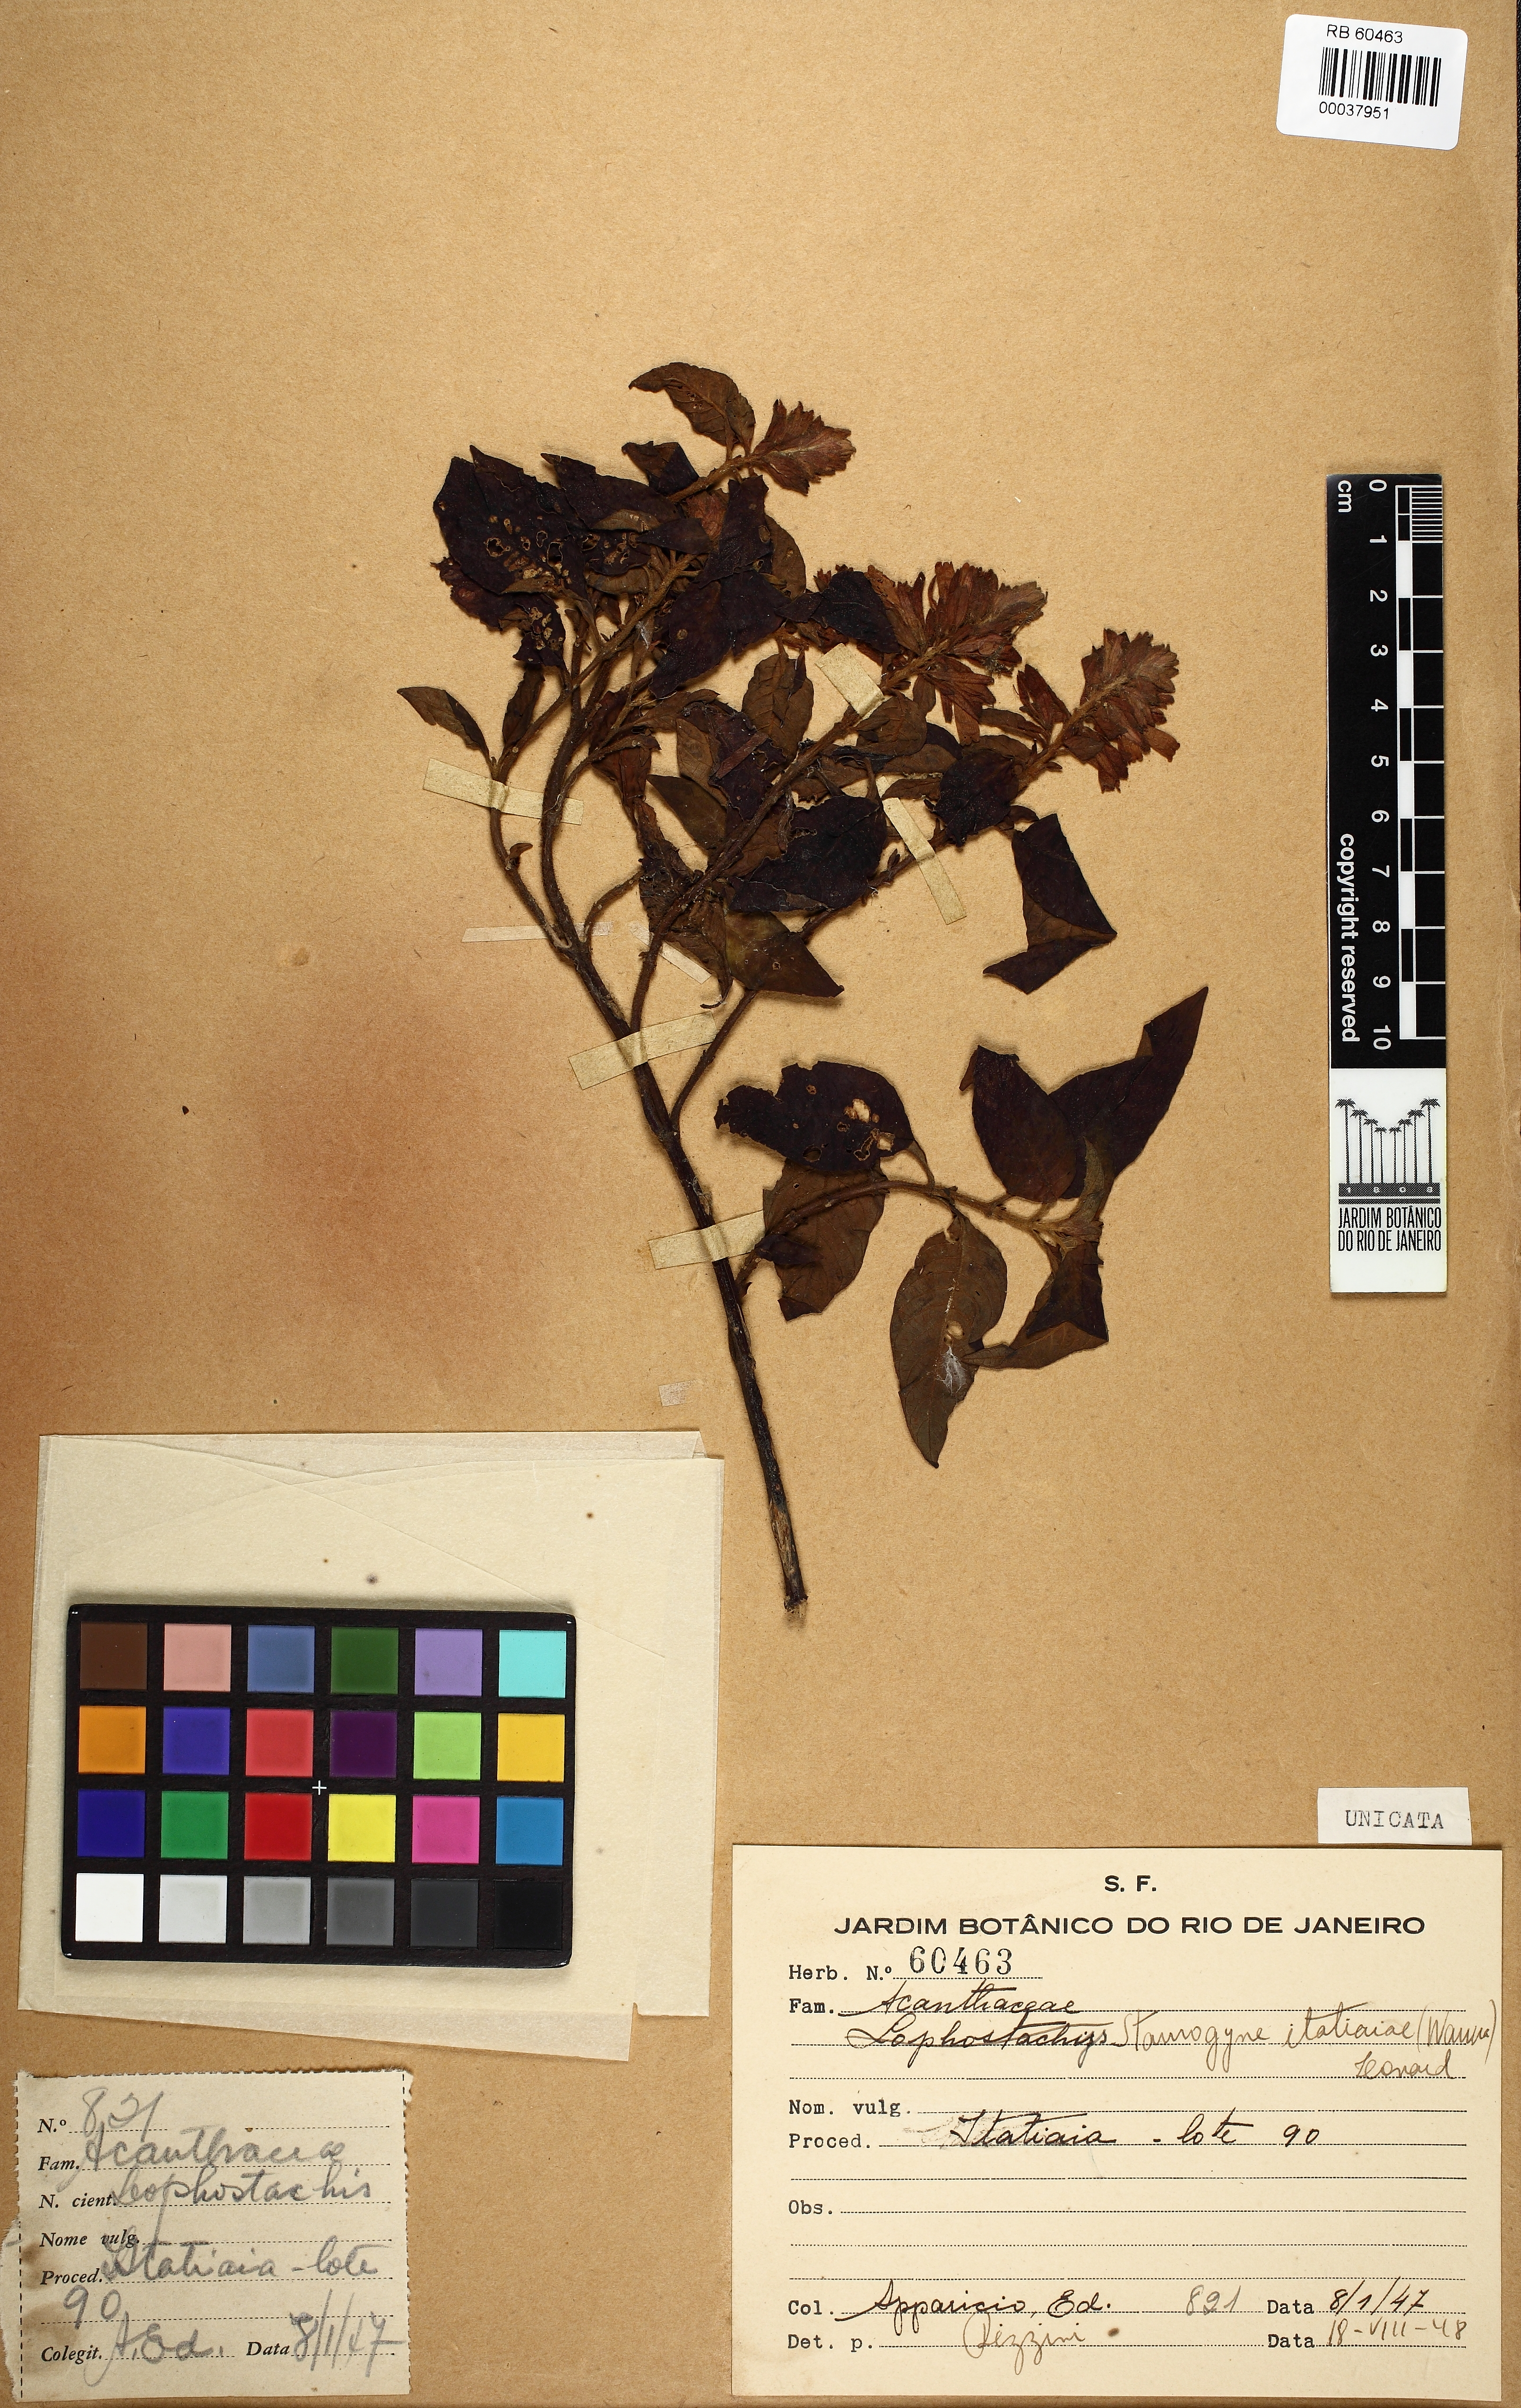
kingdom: Plantae
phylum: Tracheophyta
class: Magnoliopsida
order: Lamiales
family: Acanthaceae
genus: Staurogyne
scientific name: Staurogyne itatiaiae
